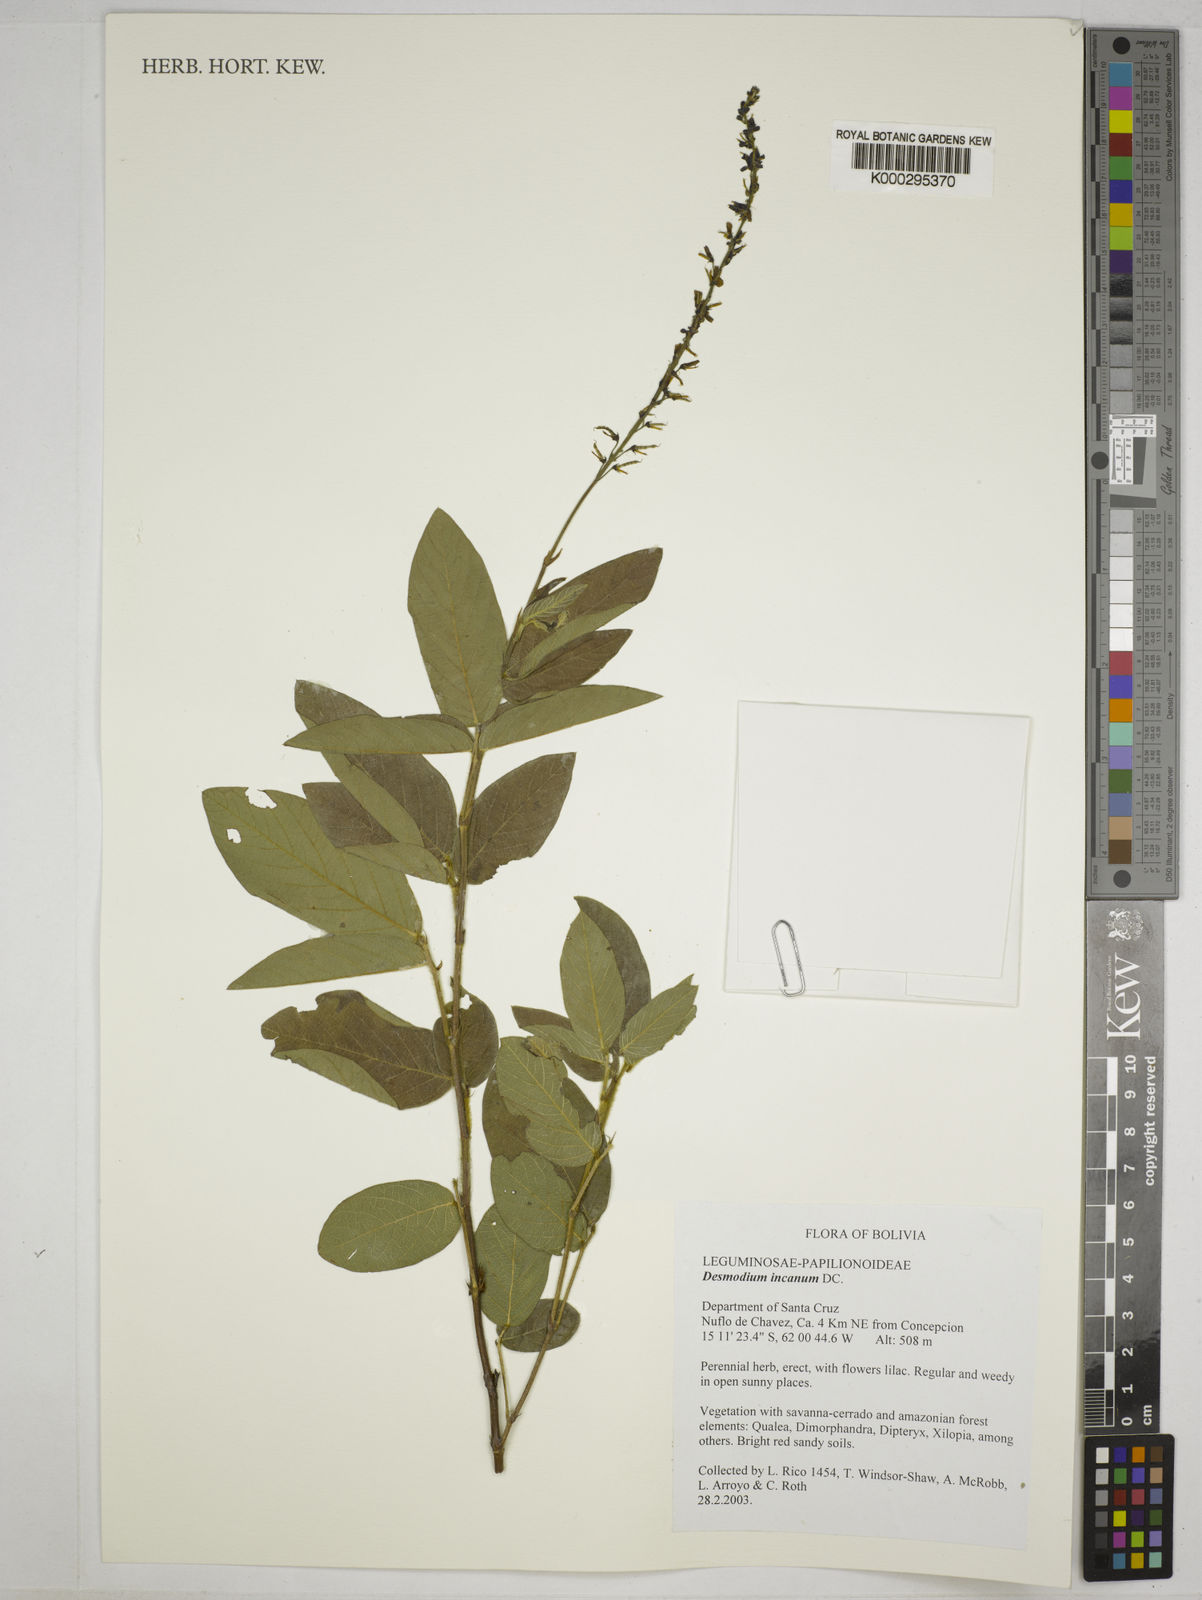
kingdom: Plantae
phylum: Tracheophyta
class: Magnoliopsida
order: Fabales
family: Fabaceae
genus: Desmodium
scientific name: Desmodium incanum
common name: Tickclover
